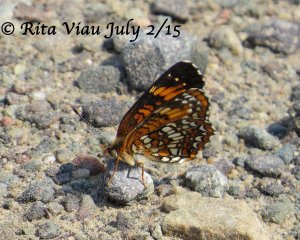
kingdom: Animalia
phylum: Arthropoda
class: Insecta
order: Lepidoptera
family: Nymphalidae
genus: Chlosyne
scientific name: Chlosyne harrisii
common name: Harris's Checkerspot
